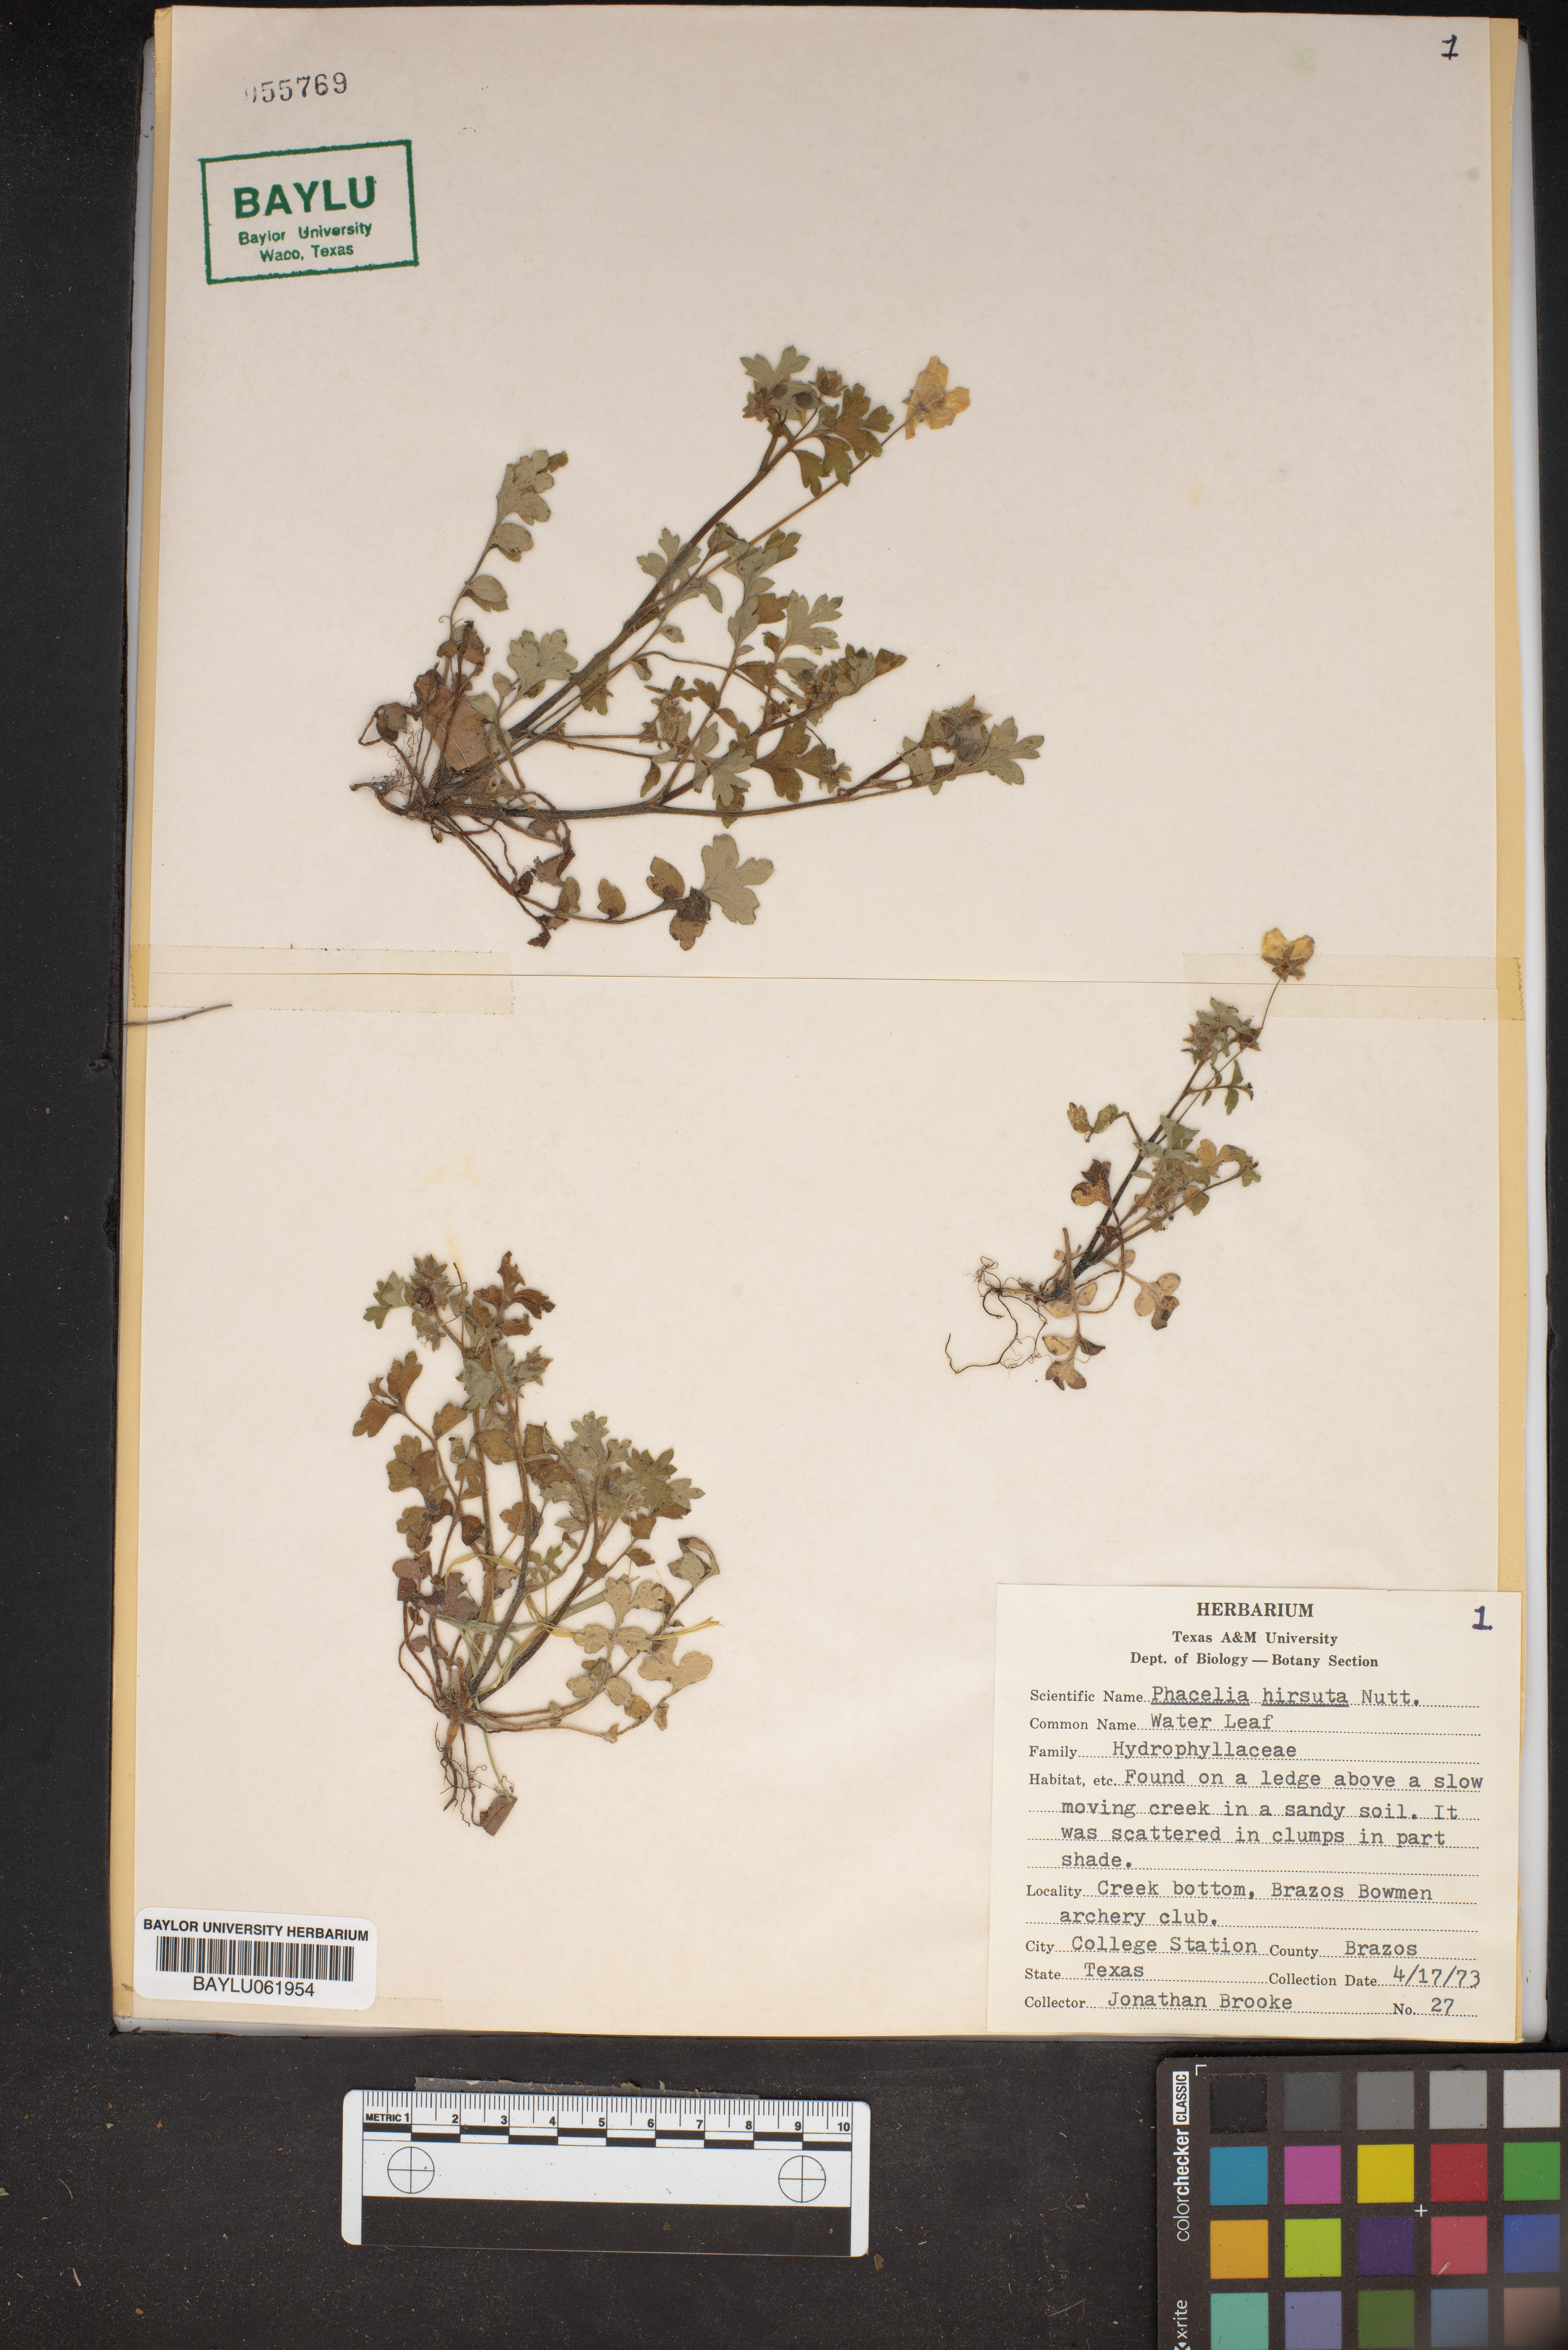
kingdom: Plantae
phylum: Tracheophyta
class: Magnoliopsida
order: Boraginales
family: Hydrophyllaceae
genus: Phacelia
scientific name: Phacelia hirsuta
